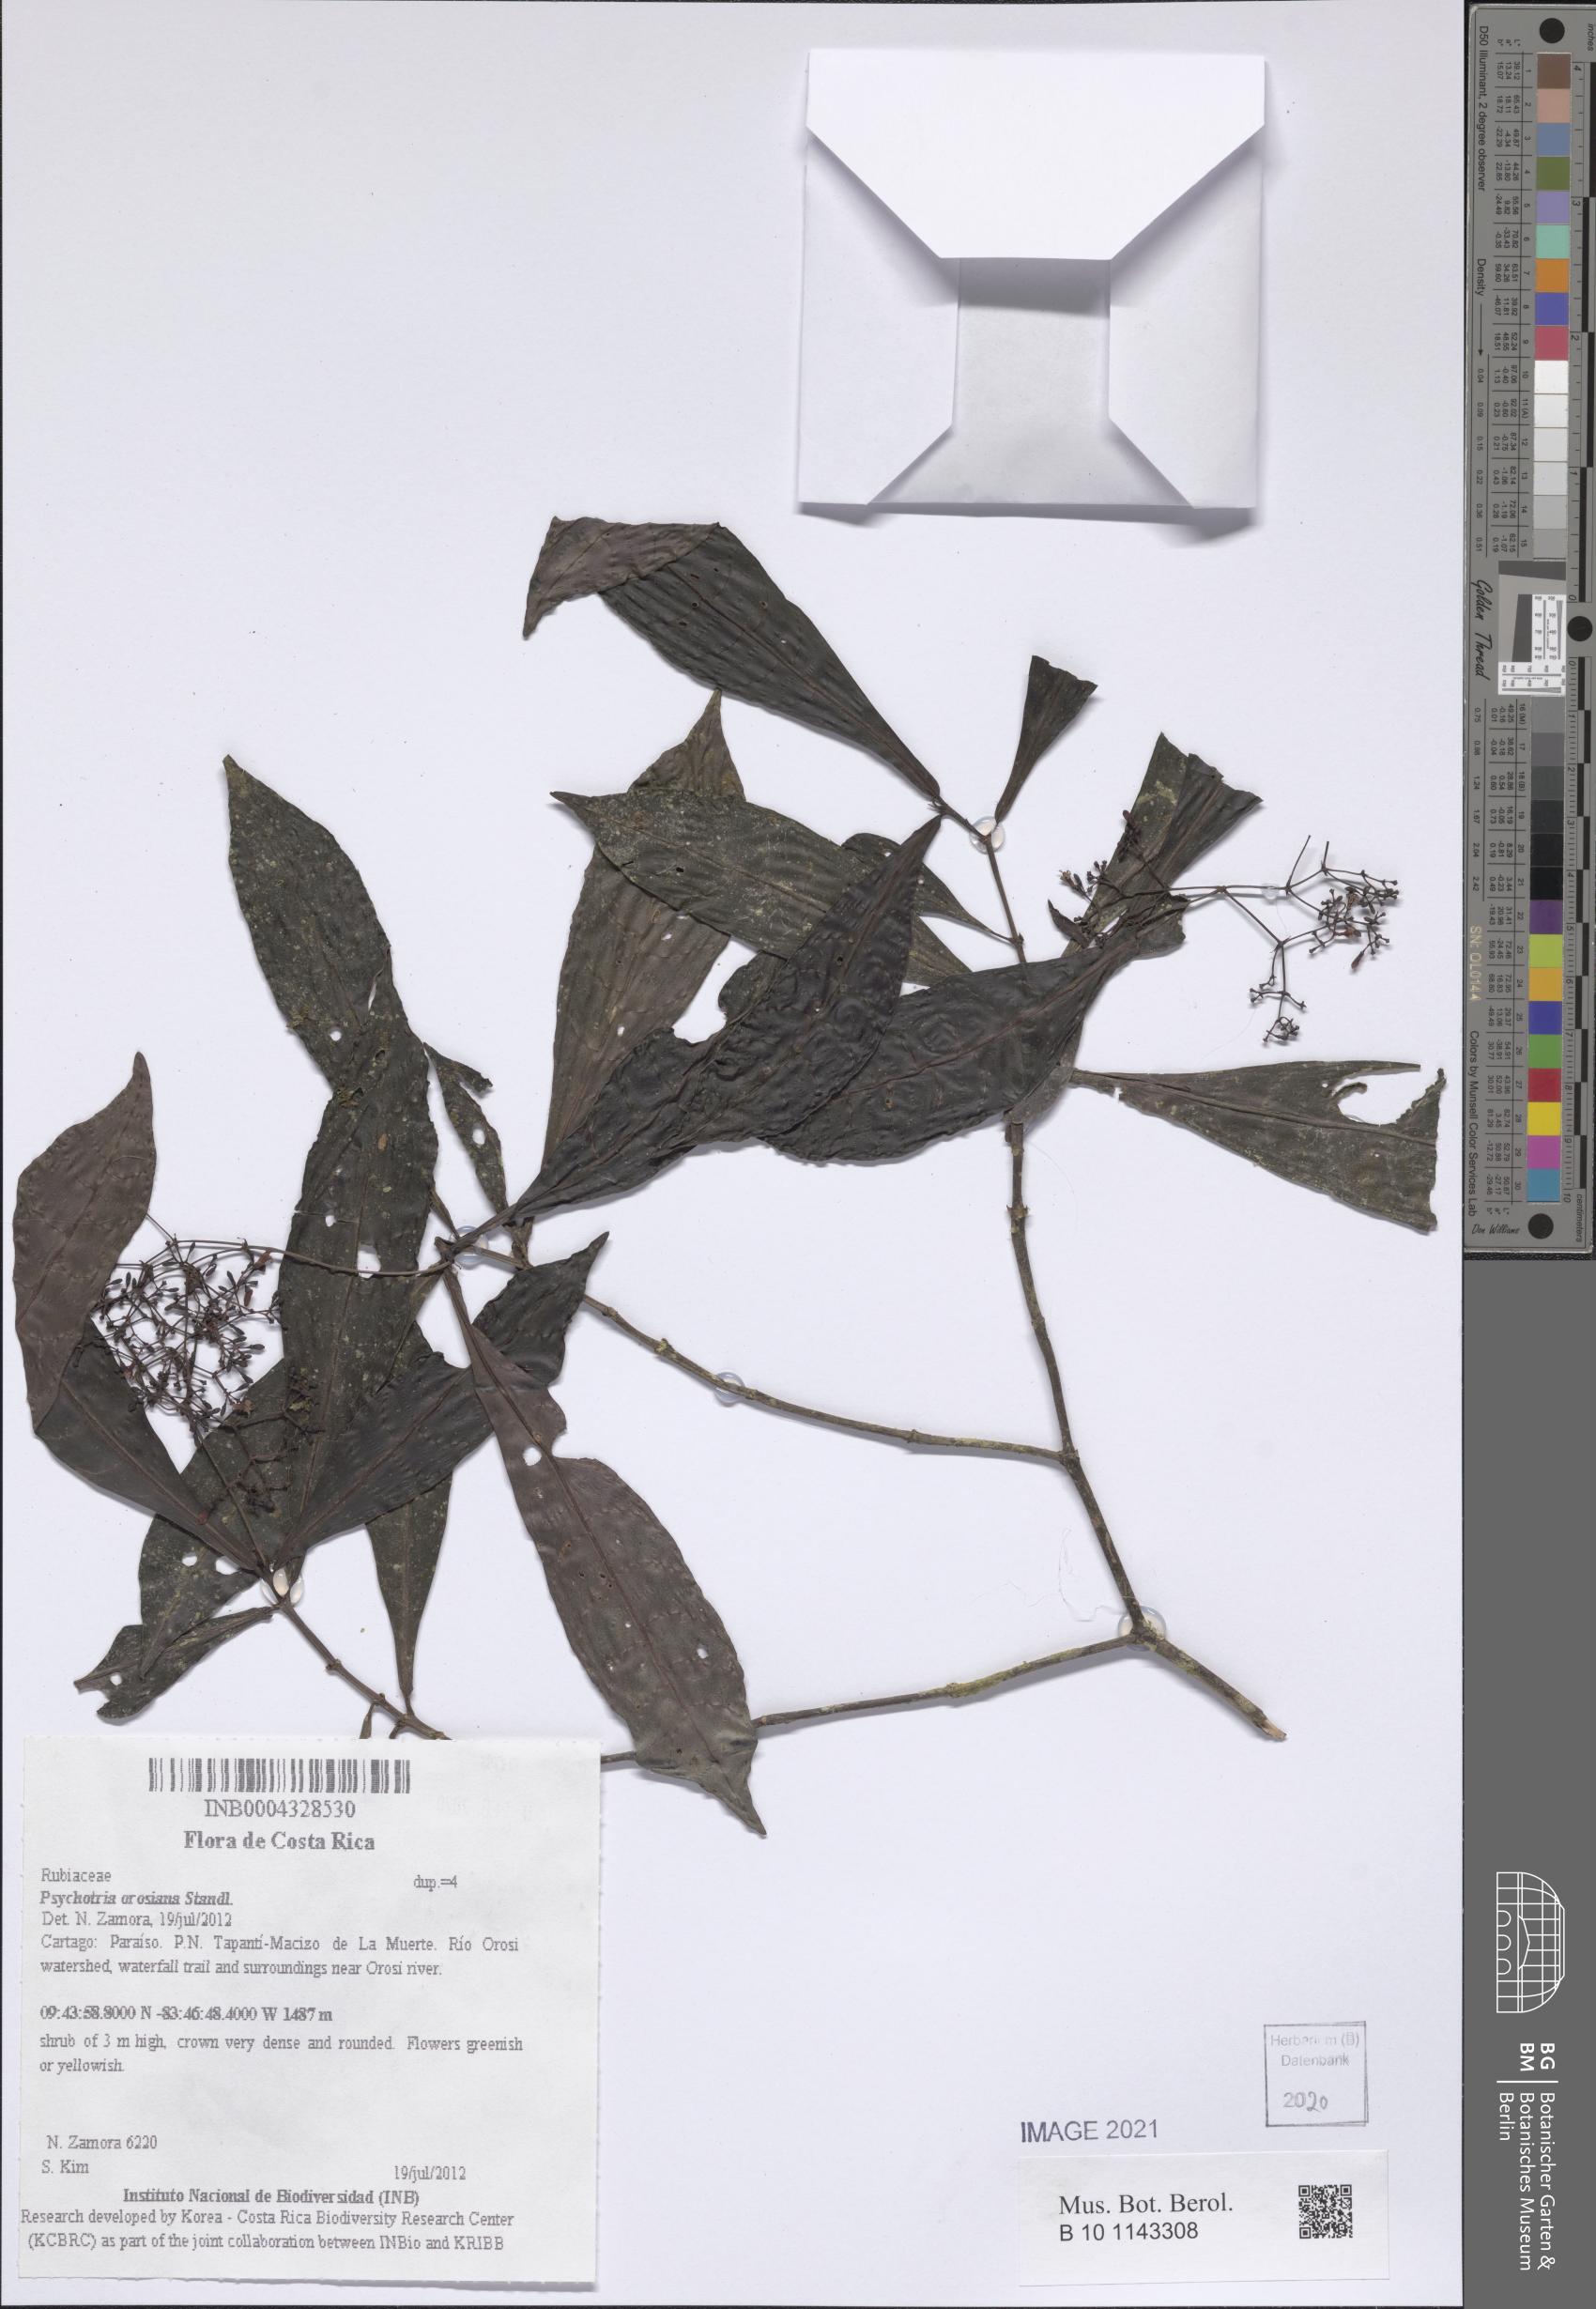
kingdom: Plantae
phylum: Tracheophyta
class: Magnoliopsida
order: Gentianales
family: Rubiaceae
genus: Psychotria
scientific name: Psychotria orosiana
